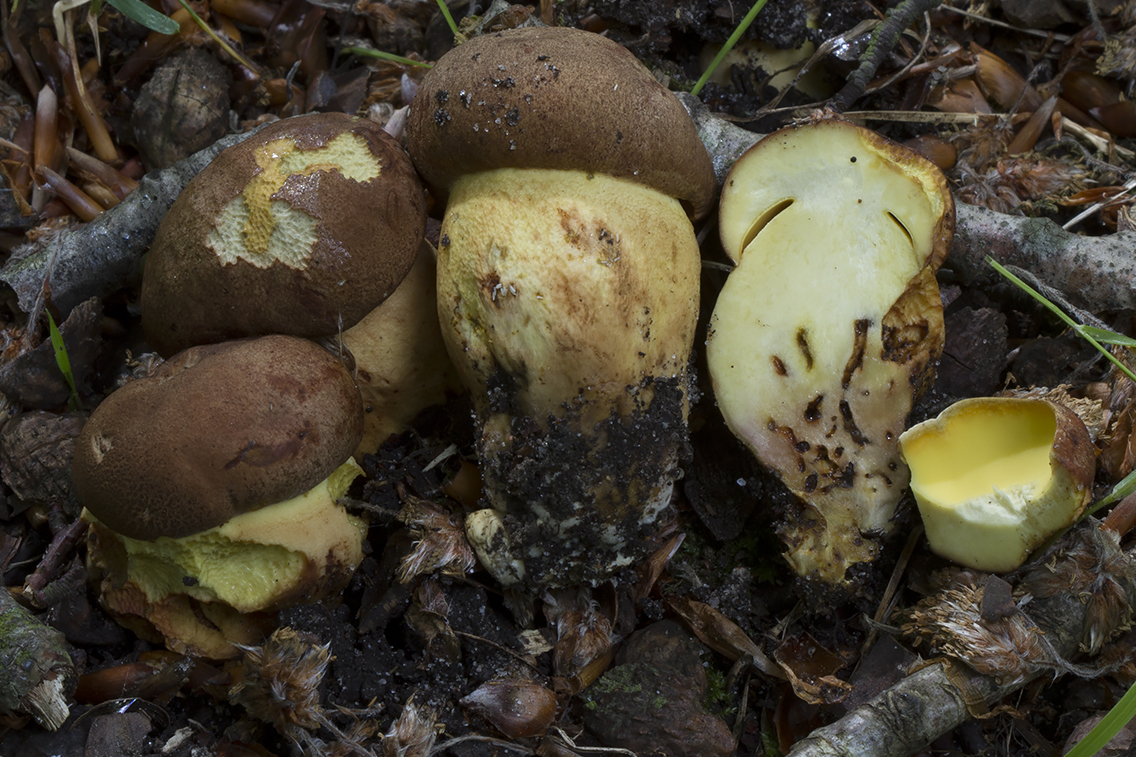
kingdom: Fungi
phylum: Basidiomycota
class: Agaricomycetes
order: Boletales
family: Boletaceae
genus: Butyriboletus
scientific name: Butyriboletus appendiculatus
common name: tenstokket rørhat
